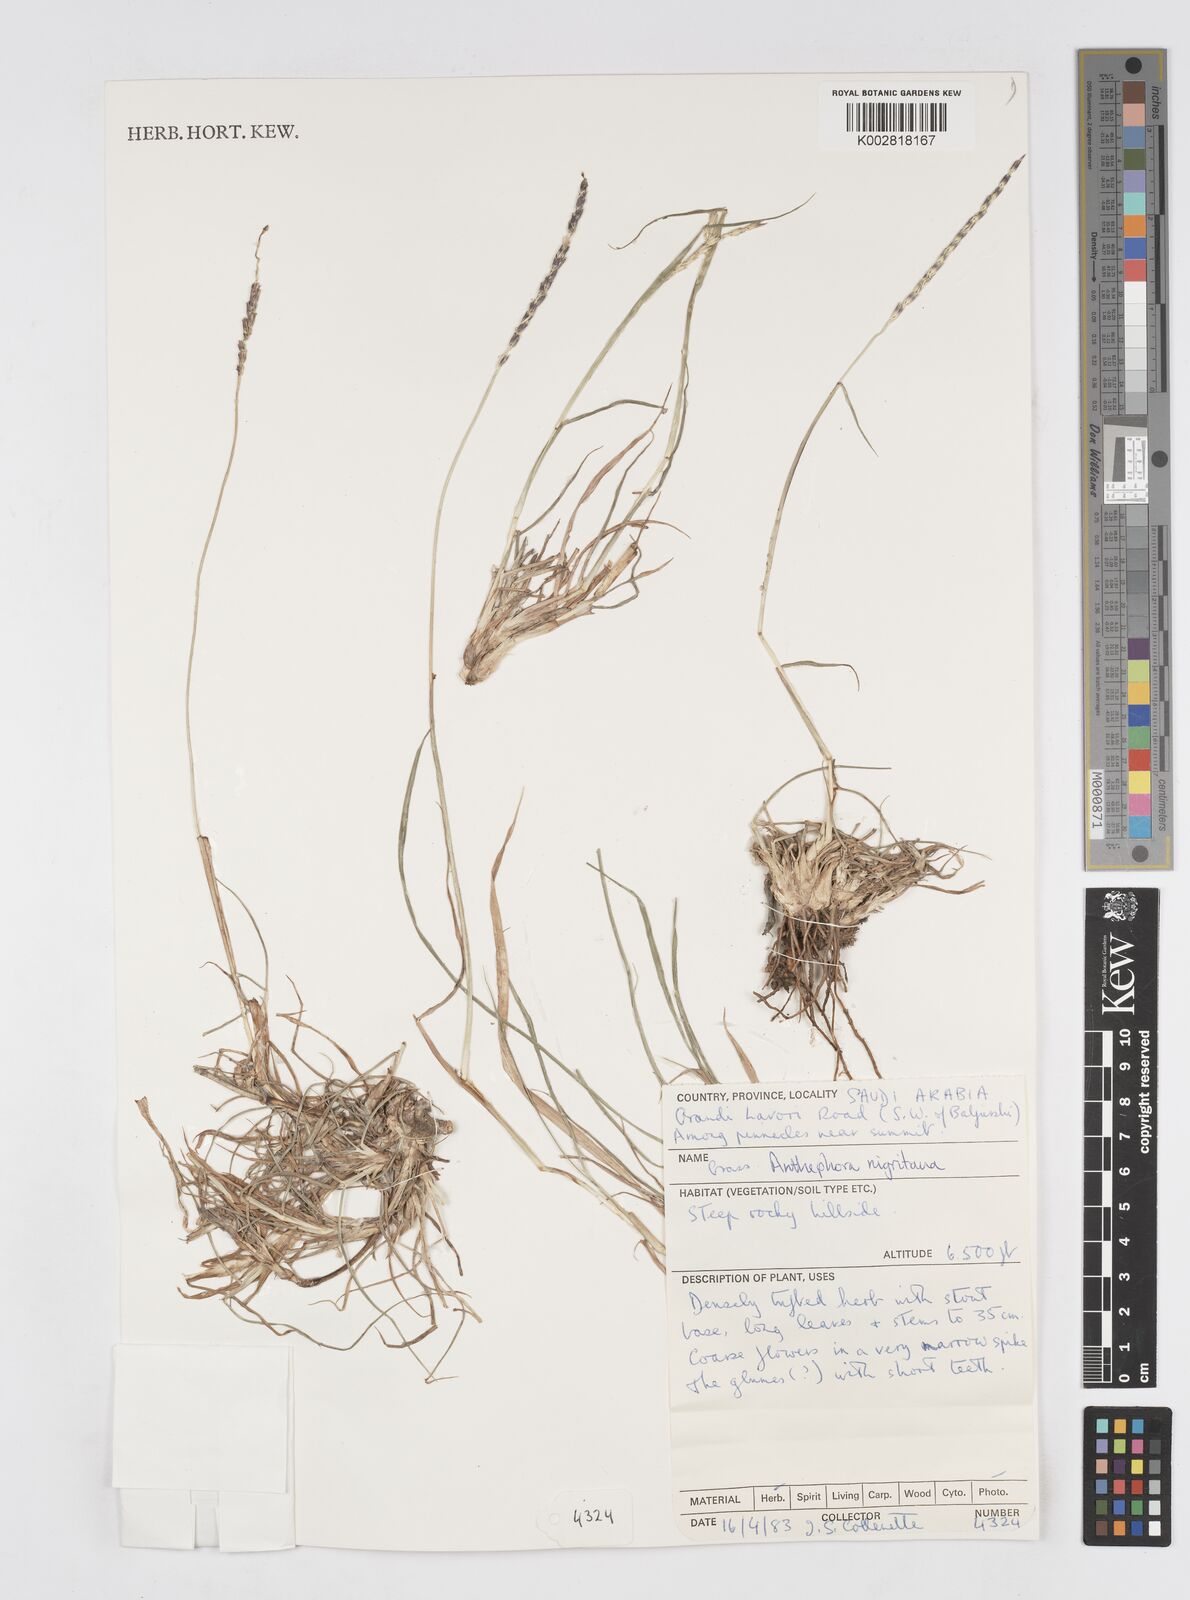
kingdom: Plantae
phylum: Tracheophyta
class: Liliopsida
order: Poales
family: Poaceae
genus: Anthephora
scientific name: Anthephora nigritana
